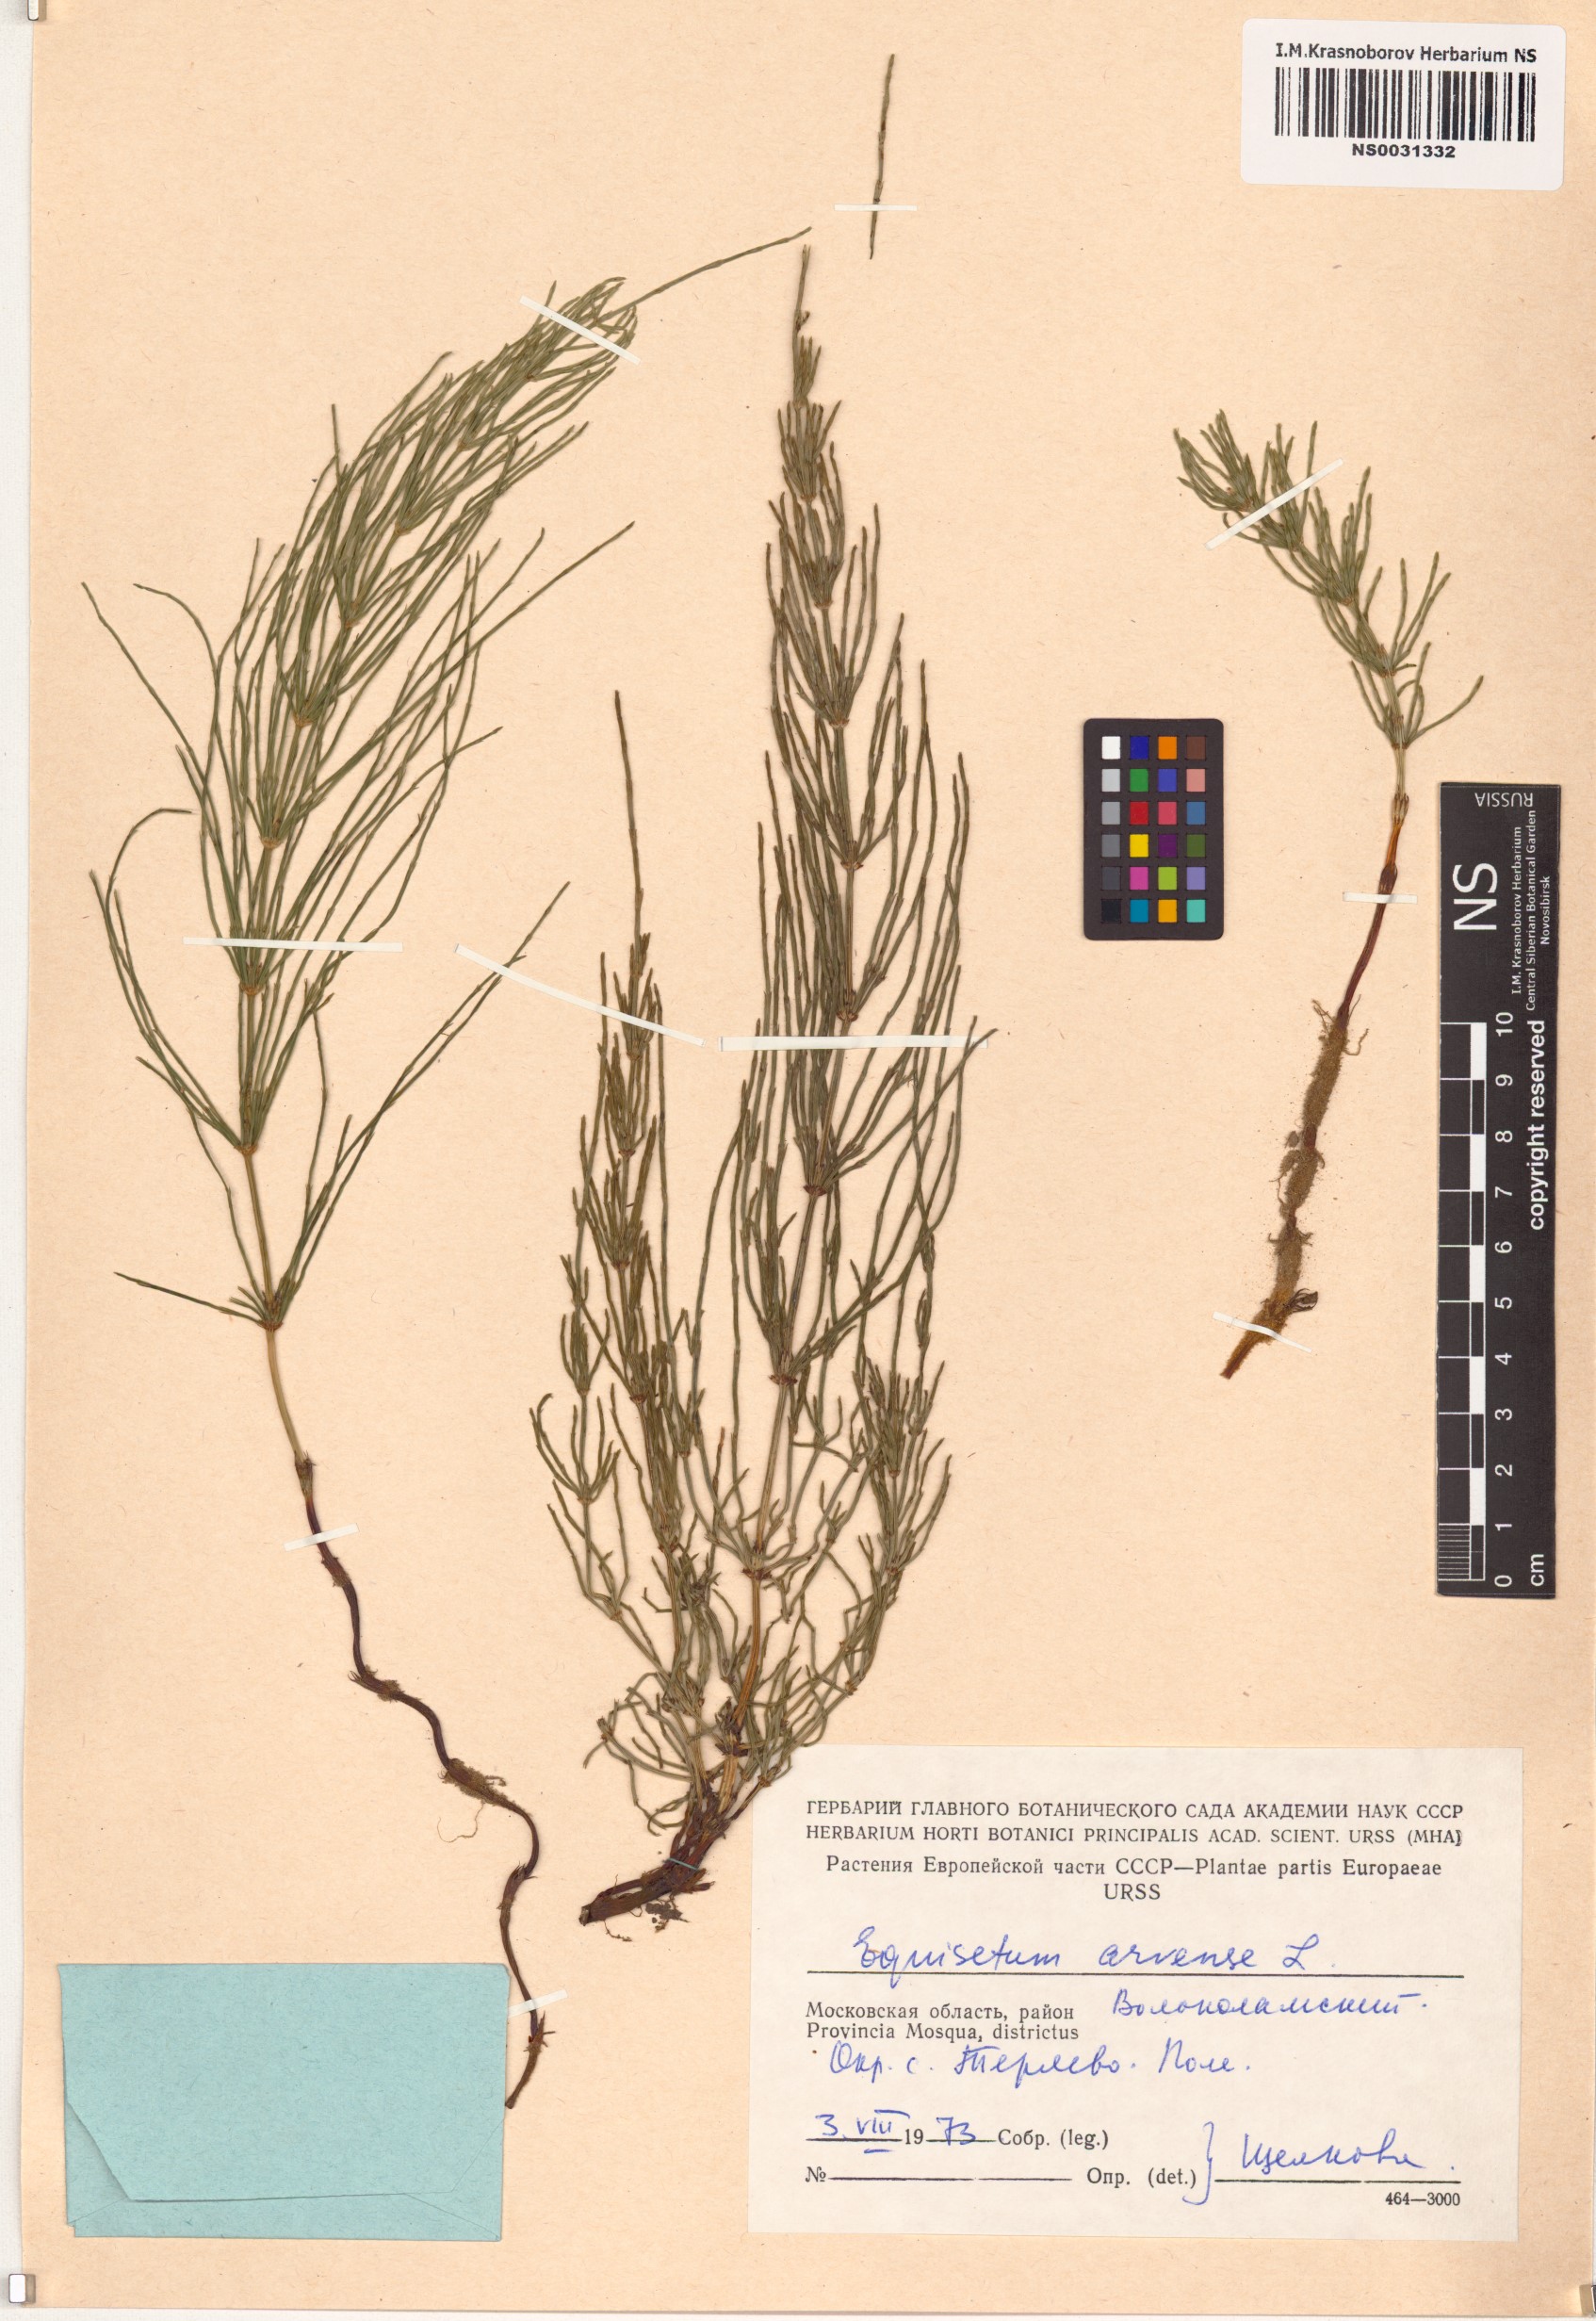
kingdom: Plantae
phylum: Tracheophyta
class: Polypodiopsida
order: Equisetales
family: Equisetaceae
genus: Equisetum
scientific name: Equisetum arvense
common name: Field horsetail
